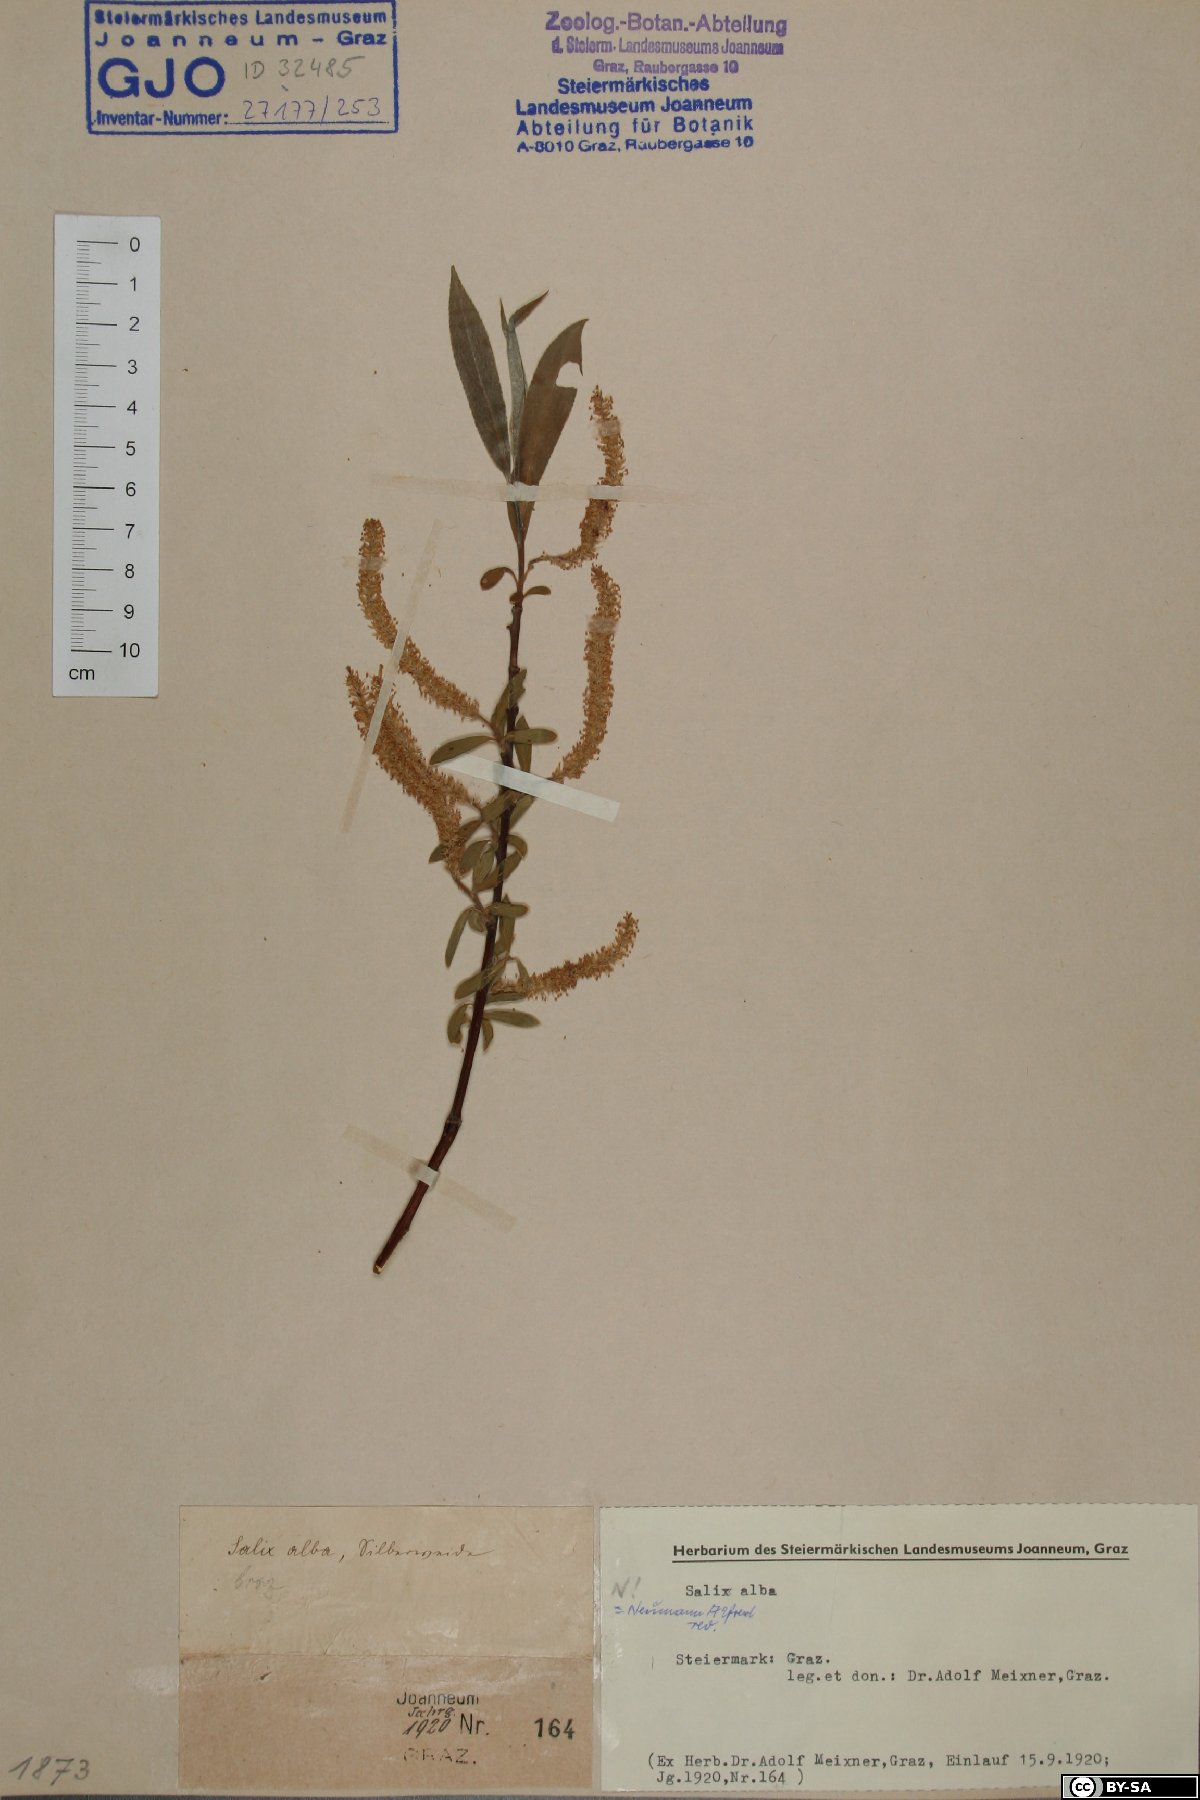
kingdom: Plantae
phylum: Tracheophyta
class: Magnoliopsida
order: Malpighiales
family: Salicaceae
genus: Salix
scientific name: Salix alba
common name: White willow
